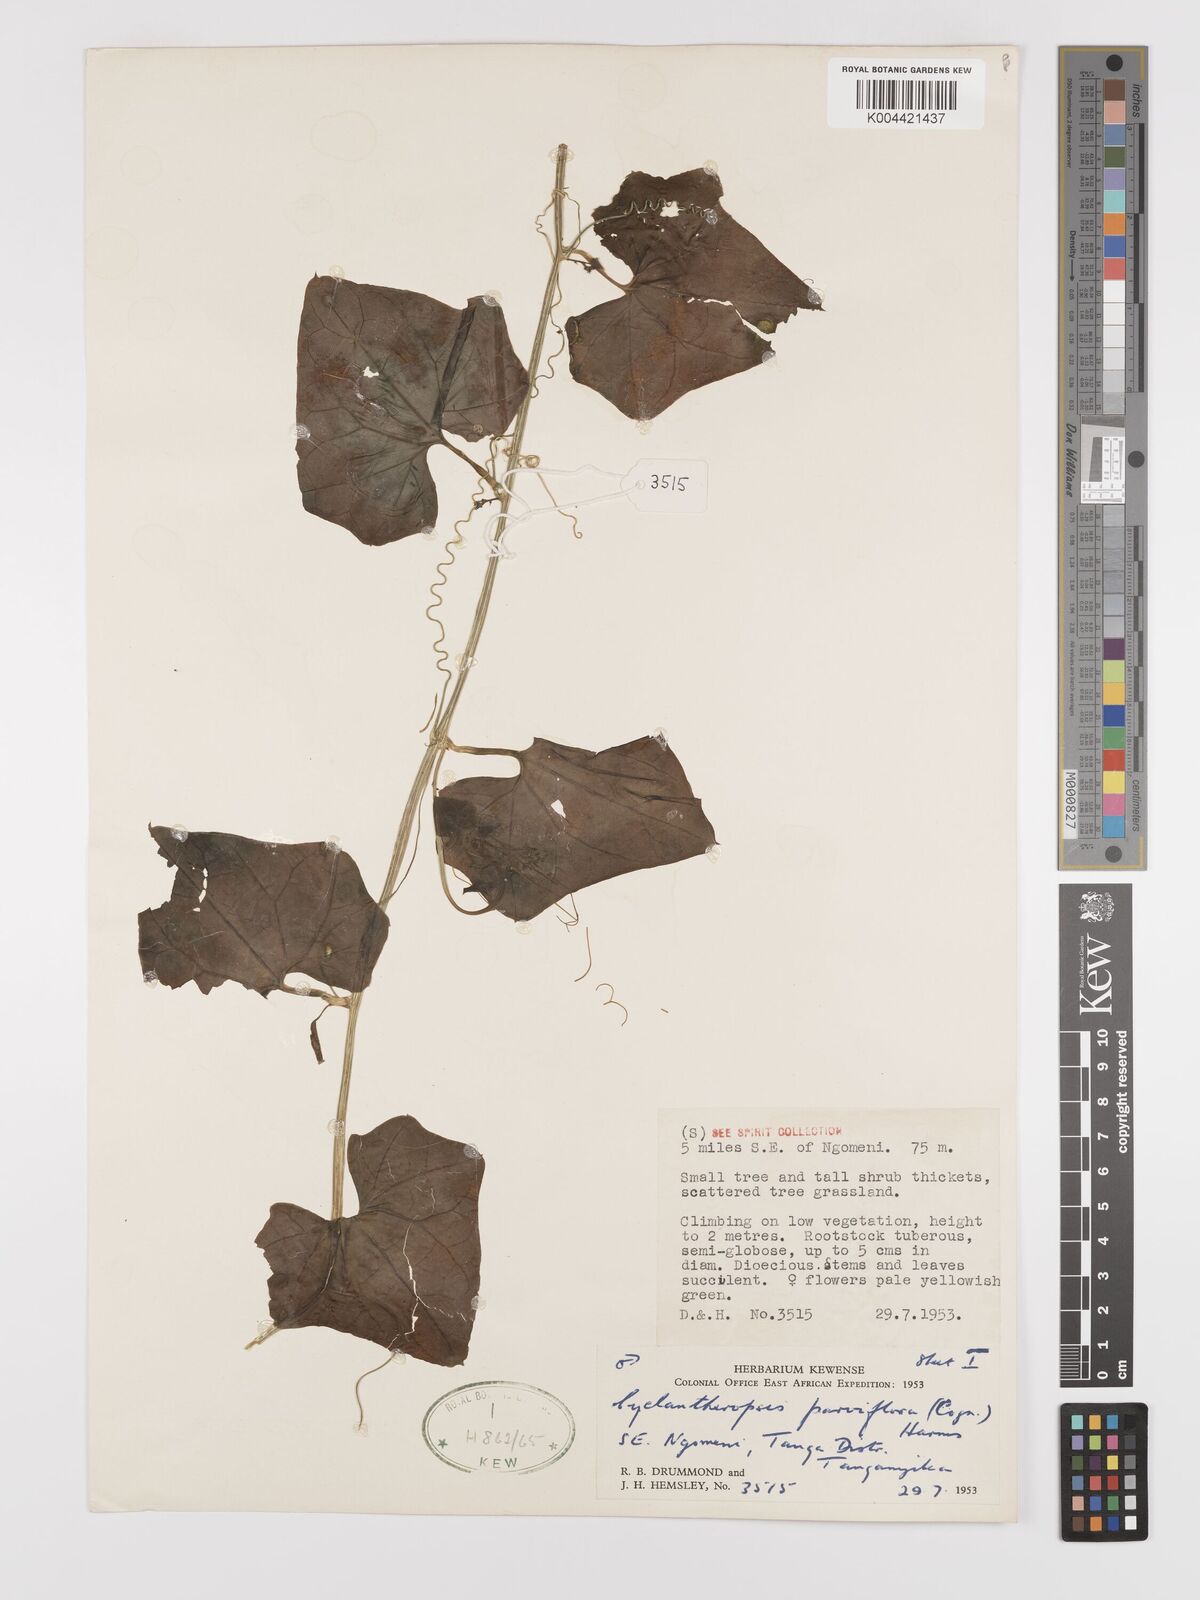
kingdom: Plantae
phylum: Tracheophyta
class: Magnoliopsida
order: Cucurbitales
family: Cucurbitaceae
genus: Cyclantheropsis
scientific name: Cyclantheropsis parviflora
